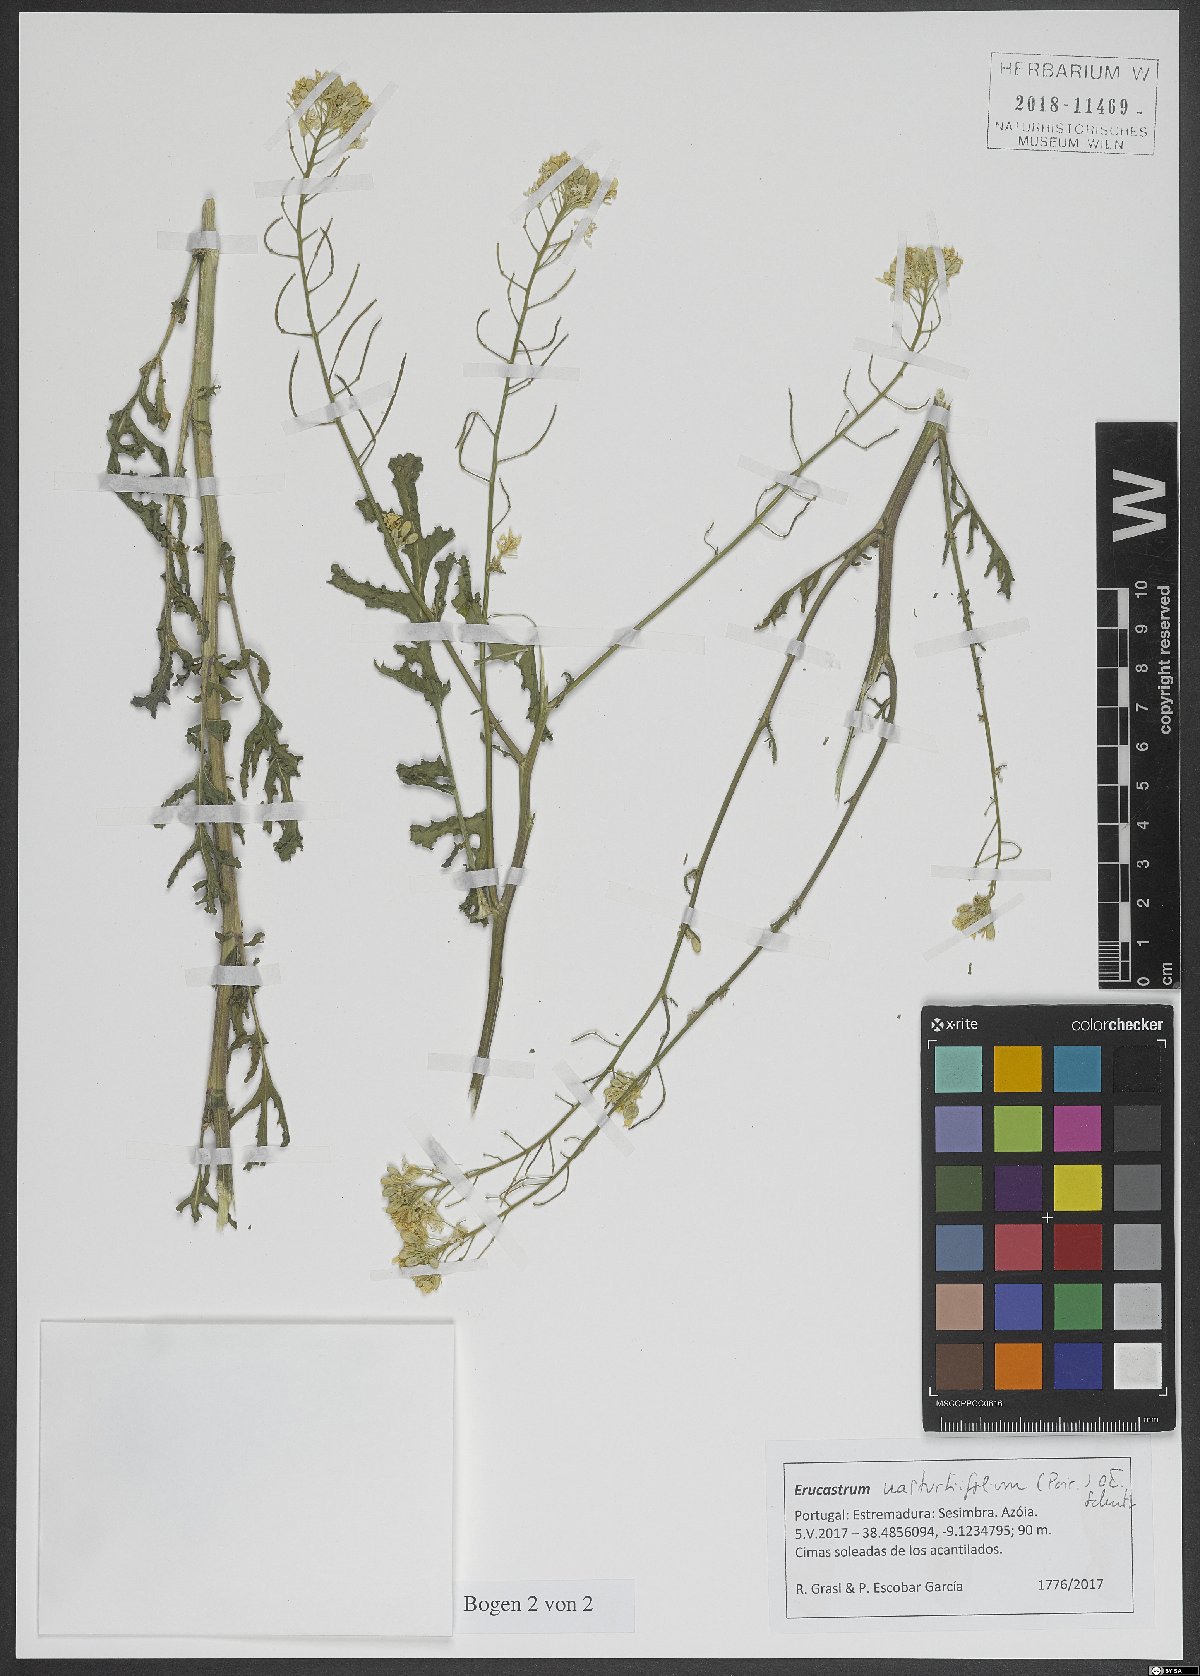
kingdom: Plantae
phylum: Tracheophyta
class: Magnoliopsida
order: Brassicales
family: Brassicaceae
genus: Erucastrum
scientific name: Erucastrum nasturtiifolium
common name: Watercress-leaf rocket
